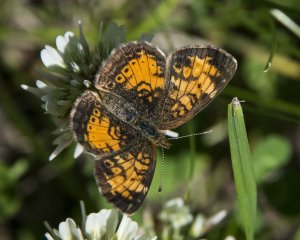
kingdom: Animalia
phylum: Arthropoda
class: Insecta
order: Lepidoptera
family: Nymphalidae
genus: Phyciodes
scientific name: Phyciodes tharos
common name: Northern Crescent
